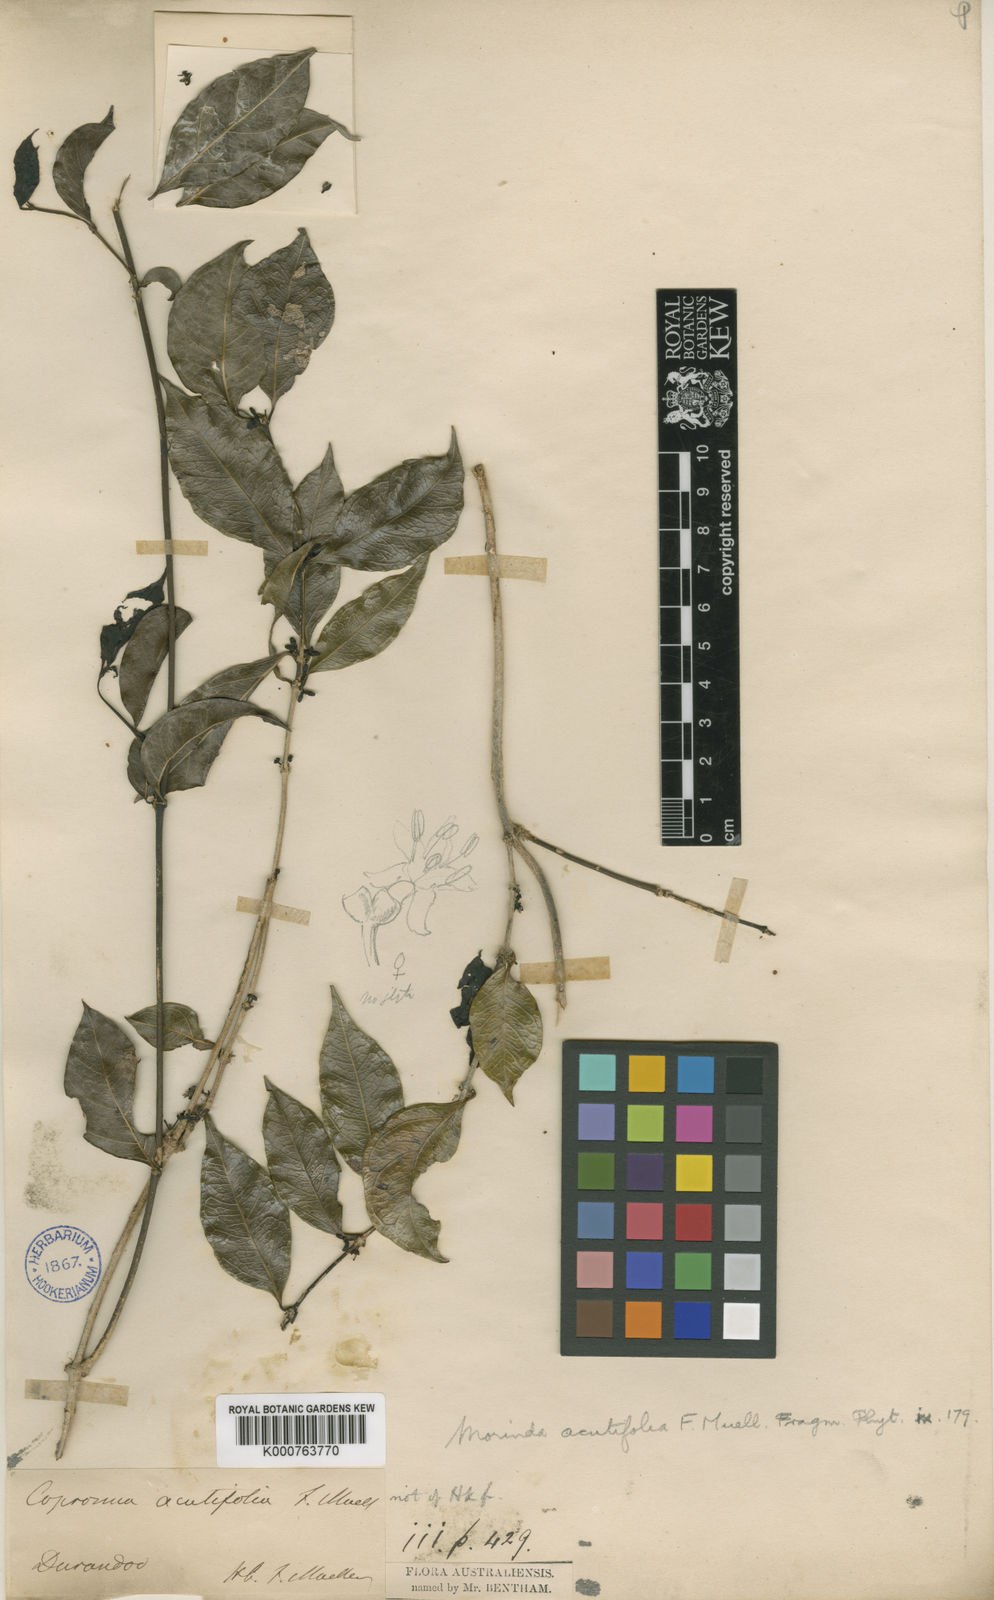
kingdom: Plantae
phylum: Tracheophyta
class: Magnoliopsida
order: Gentianales
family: Rubiaceae
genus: Gynochthodes
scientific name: Gynochthodes canthoides
